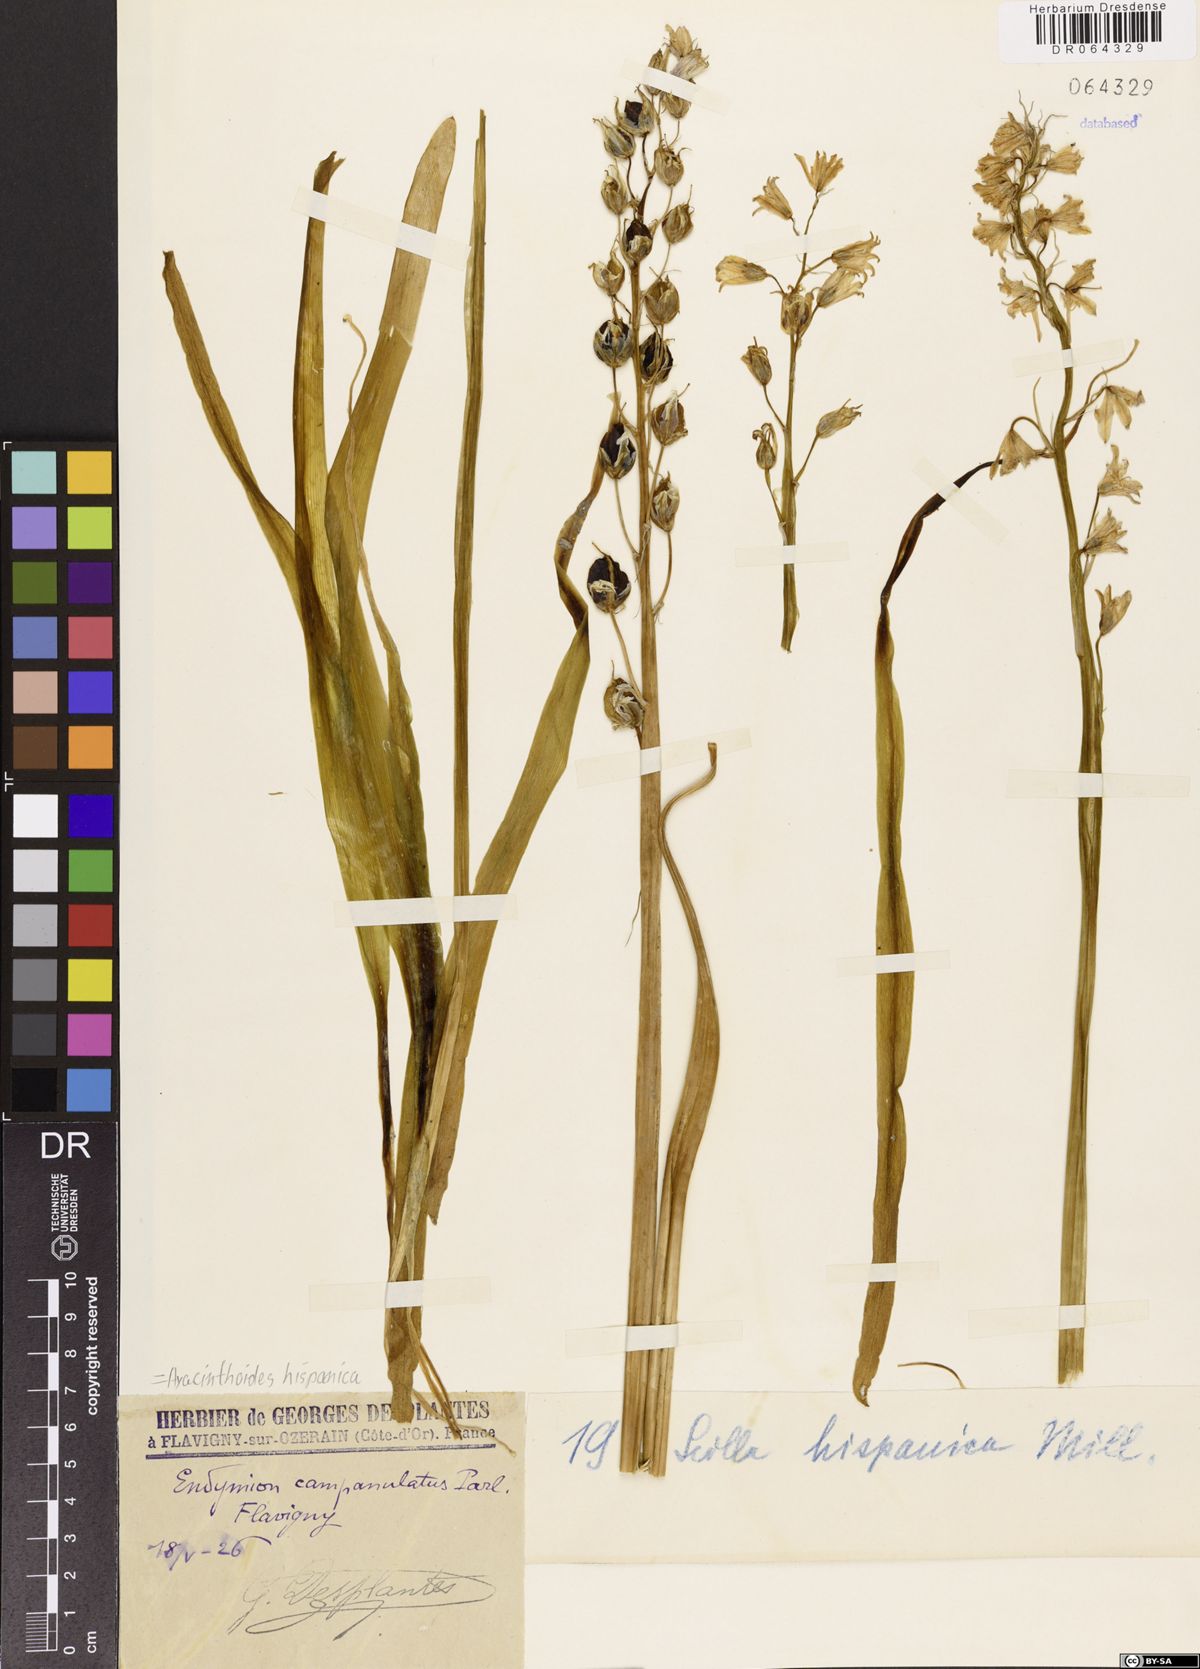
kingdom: Plantae
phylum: Tracheophyta
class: Liliopsida
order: Asparagales
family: Asparagaceae
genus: Hyacinthoides
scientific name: Hyacinthoides hispanica
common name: Spanish bluebell
